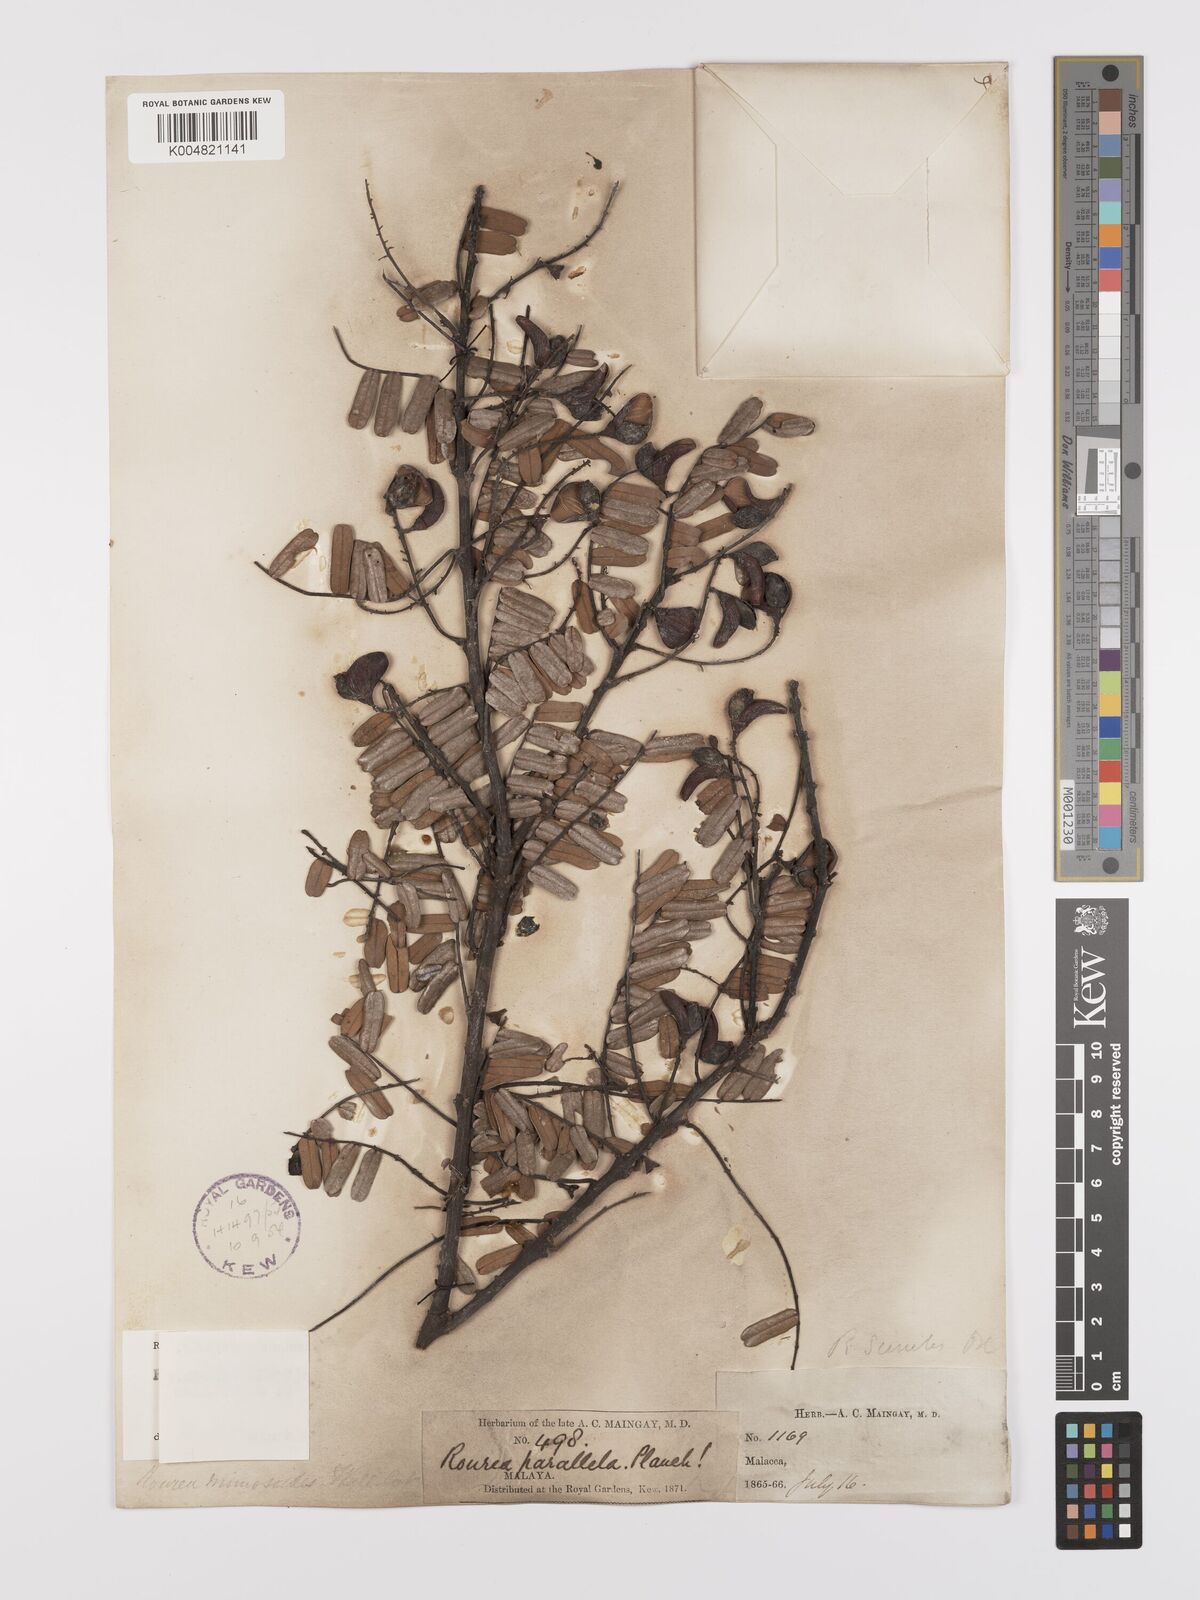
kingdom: Plantae
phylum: Tracheophyta
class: Magnoliopsida
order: Oxalidales
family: Connaraceae
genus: Rourea
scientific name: Rourea mimosoides
